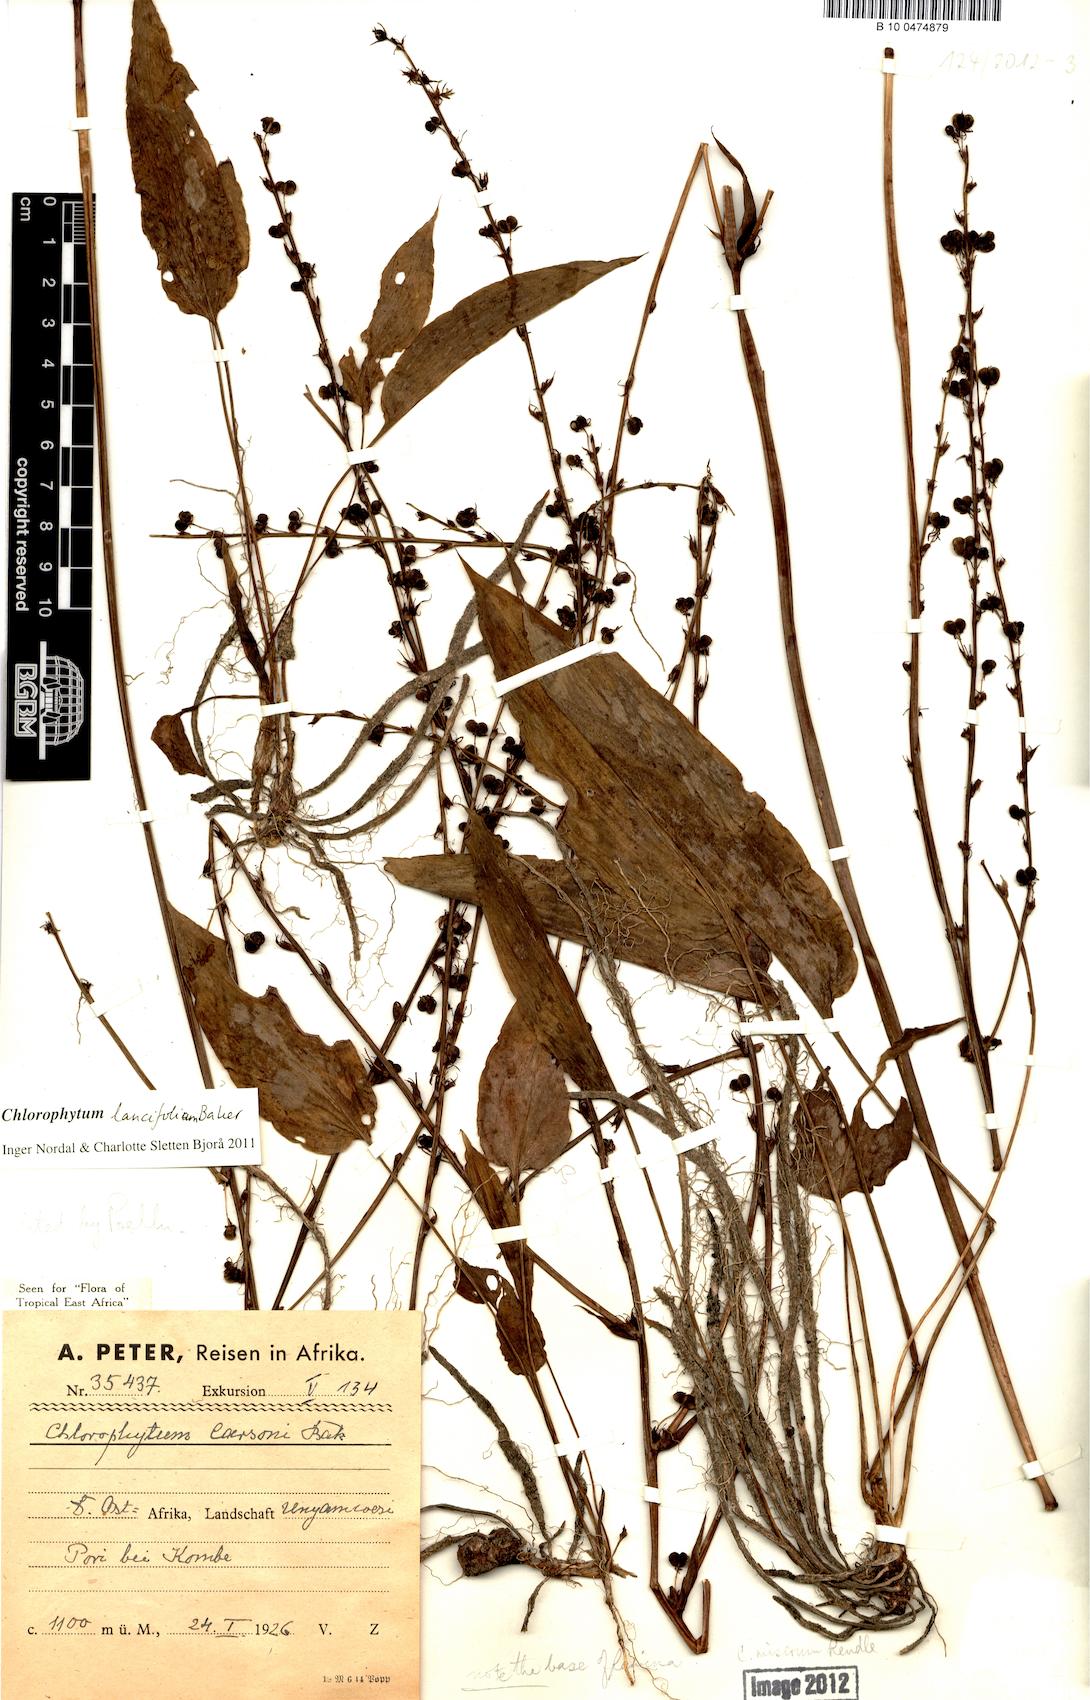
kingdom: Plantae
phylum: Tracheophyta
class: Liliopsida
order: Asparagales
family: Asparagaceae
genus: Chlorophytum
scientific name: Chlorophytum lancifolium
